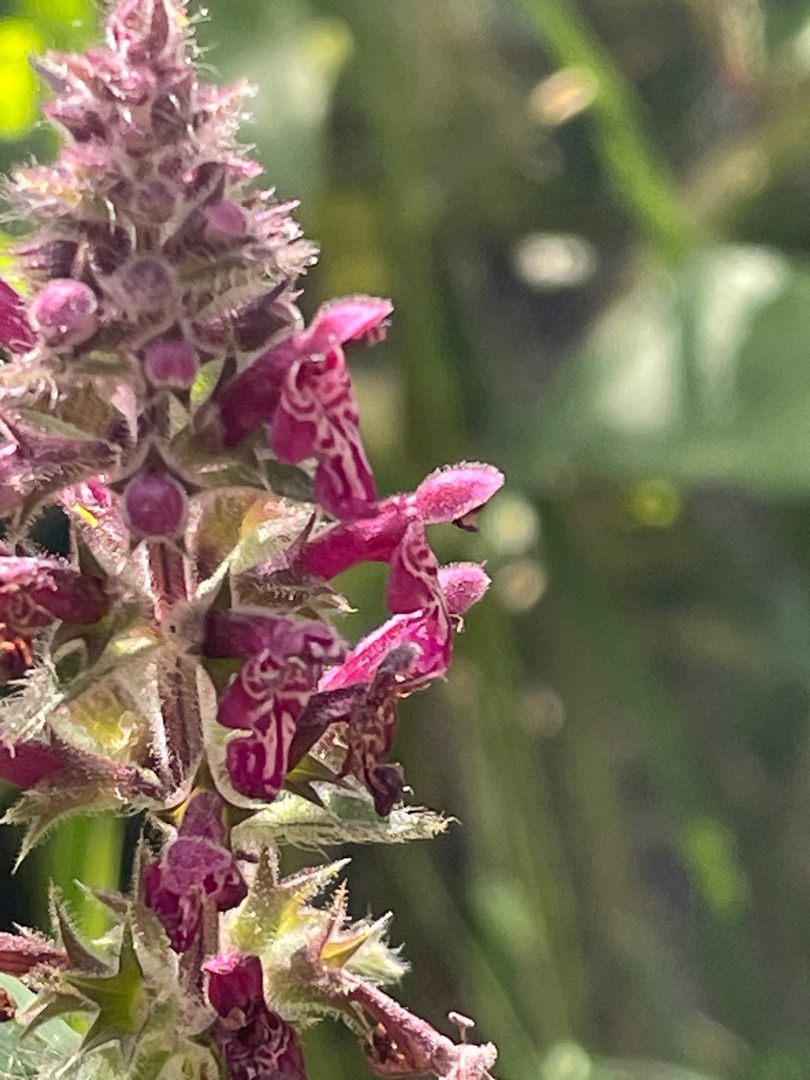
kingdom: Plantae
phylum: Tracheophyta
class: Magnoliopsida
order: Lamiales
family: Lamiaceae
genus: Stachys
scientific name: Stachys sylvatica
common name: Skov-galtetand
